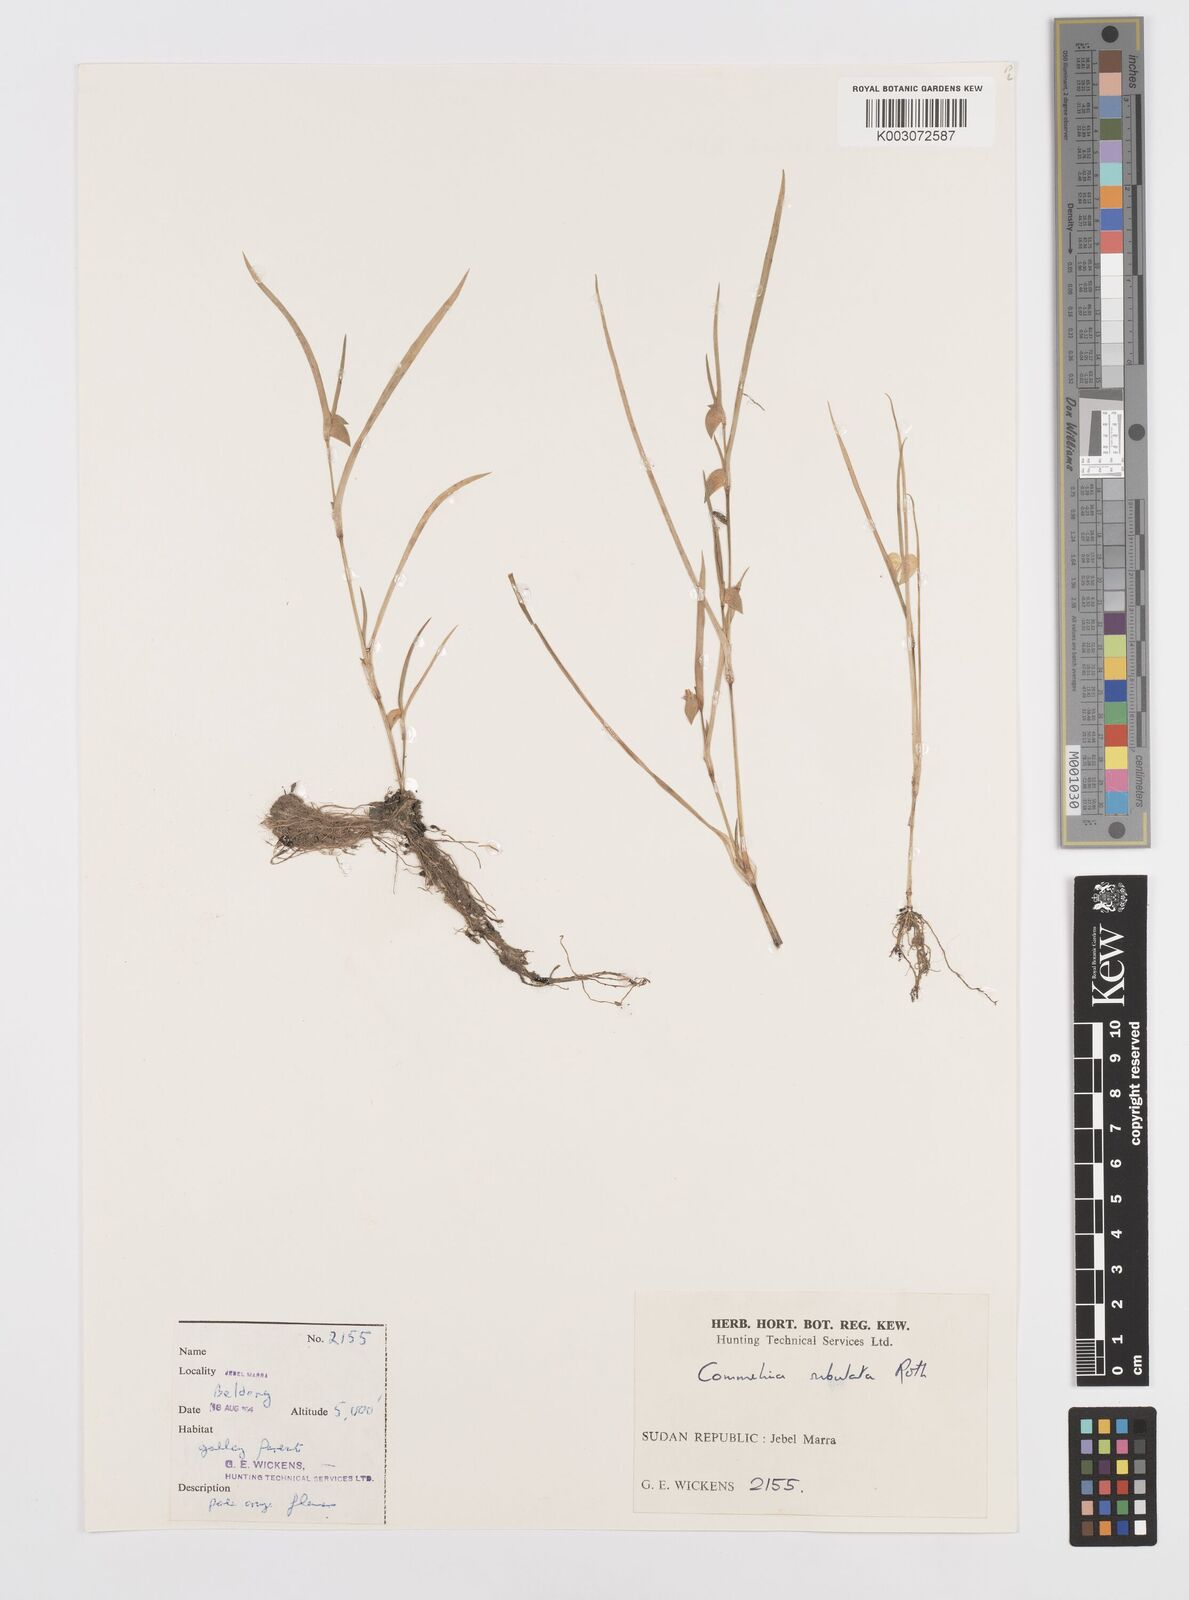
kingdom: Plantae
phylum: Tracheophyta
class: Liliopsida
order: Commelinales
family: Commelinaceae
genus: Commelina
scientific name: Commelina subulata
